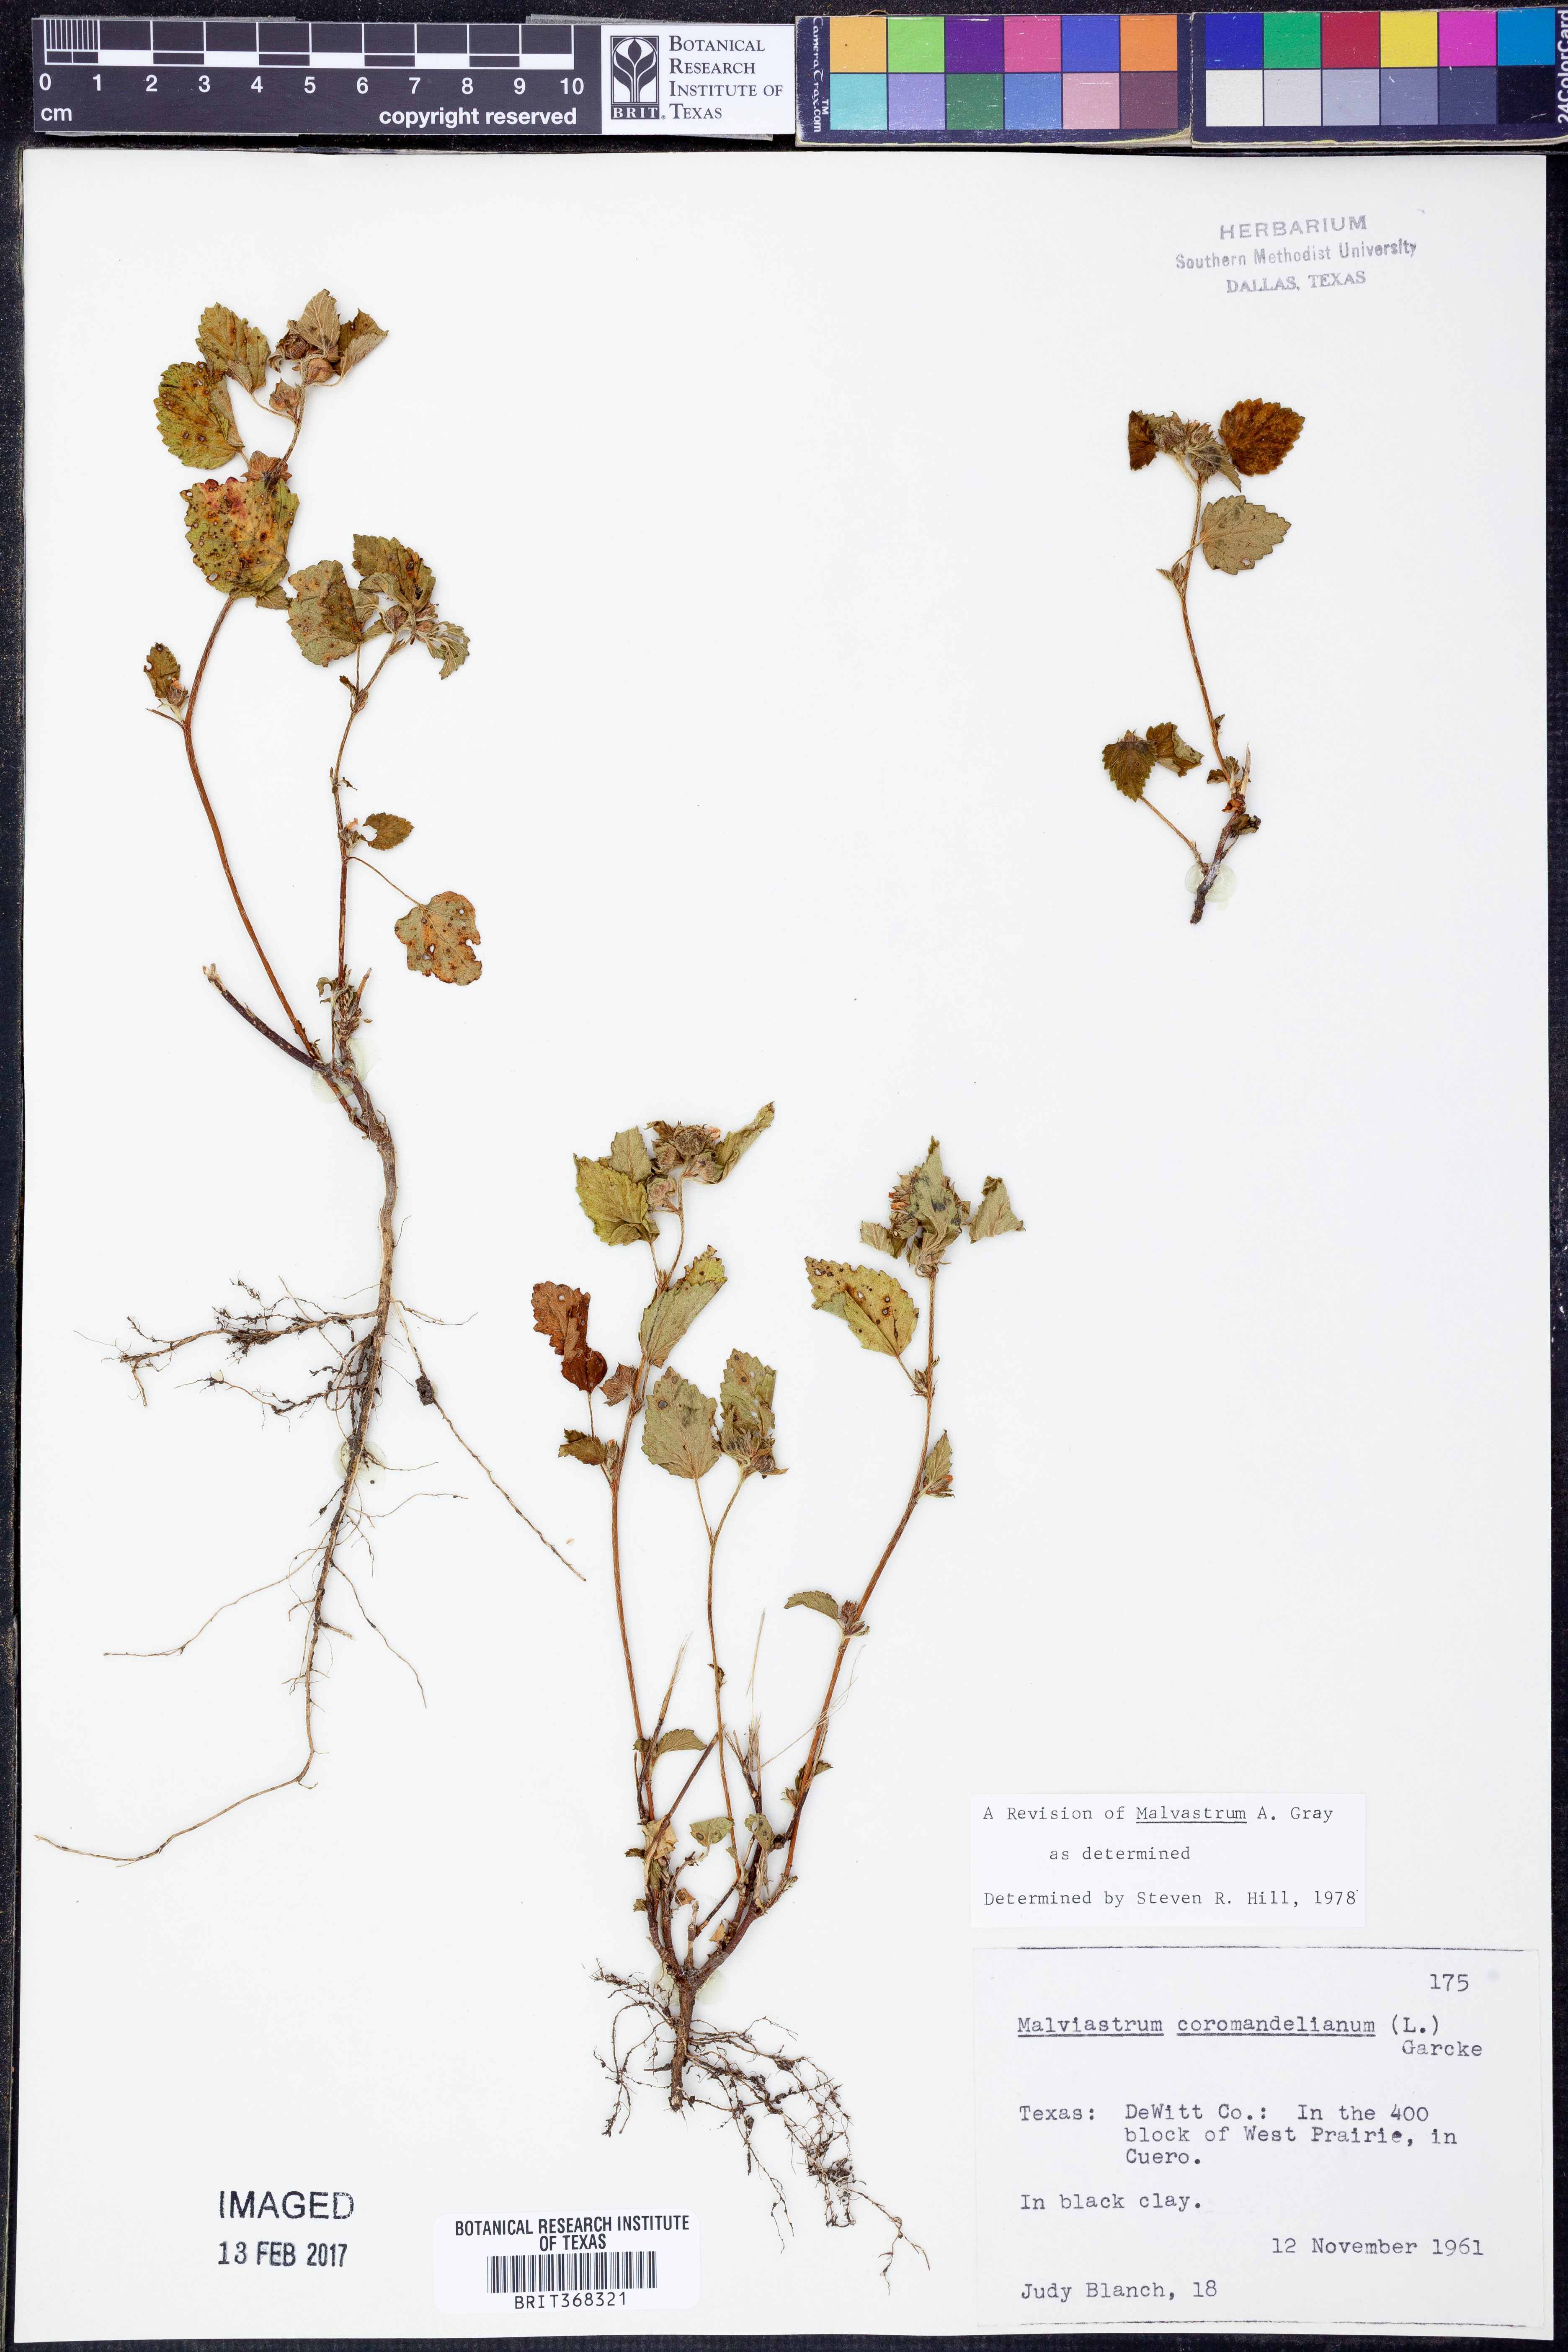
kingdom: Plantae
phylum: Tracheophyta
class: Magnoliopsida
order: Malvales
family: Malvaceae
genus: Malvastrum
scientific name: Malvastrum coromandelianum
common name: Threelobe false mallow
